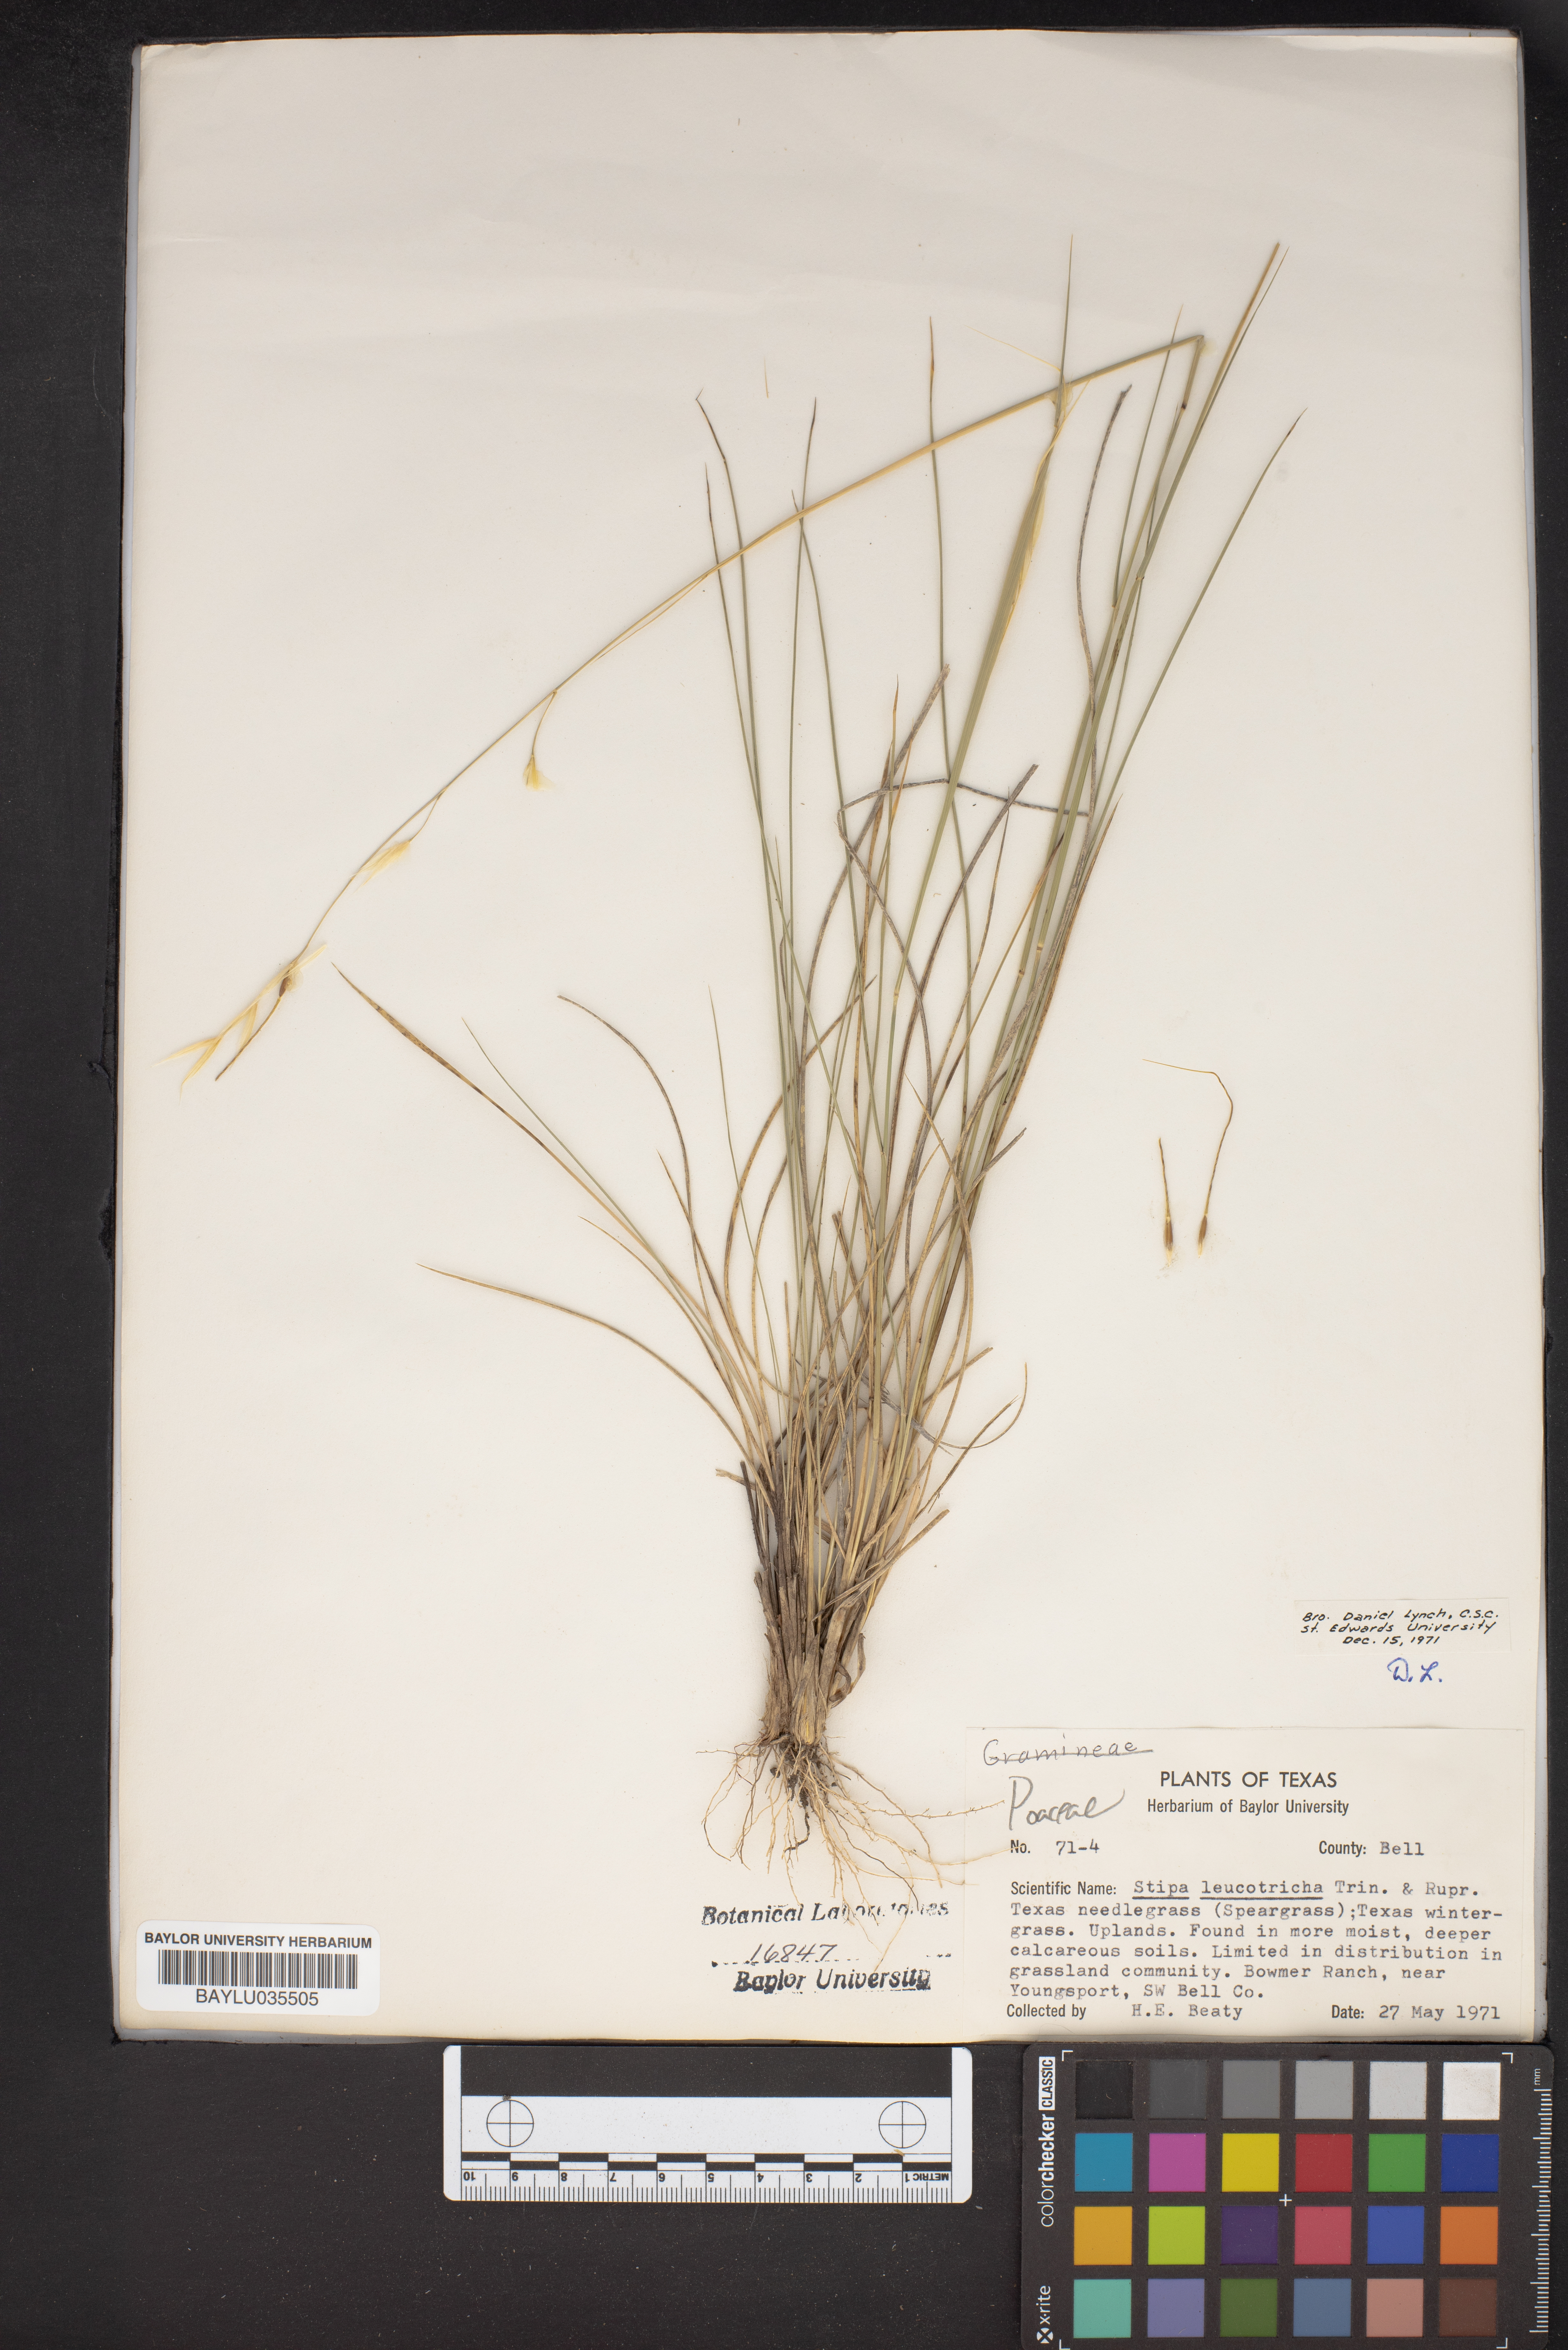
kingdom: Plantae
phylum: Tracheophyta
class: Liliopsida
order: Poales
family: Poaceae
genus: Nassella
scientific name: Nassella leucotricha
